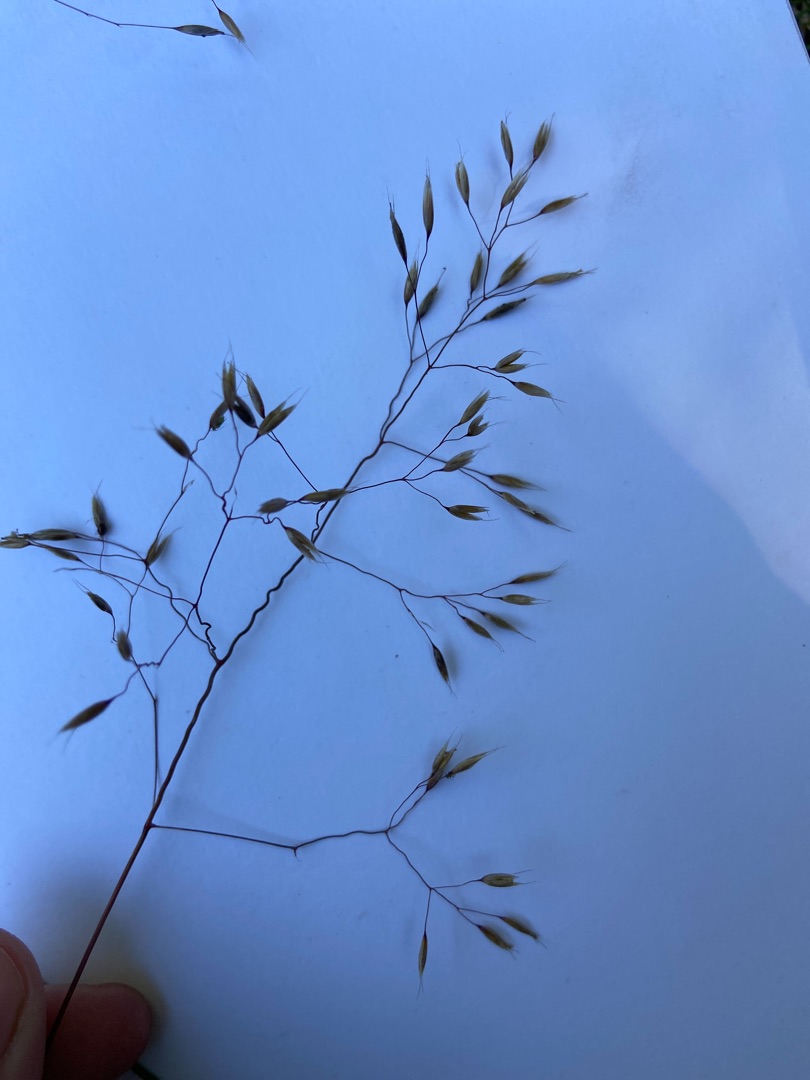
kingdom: Plantae
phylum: Tracheophyta
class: Liliopsida
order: Poales
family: Poaceae
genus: Avenella
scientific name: Avenella flexuosa
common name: Bølget bunke
